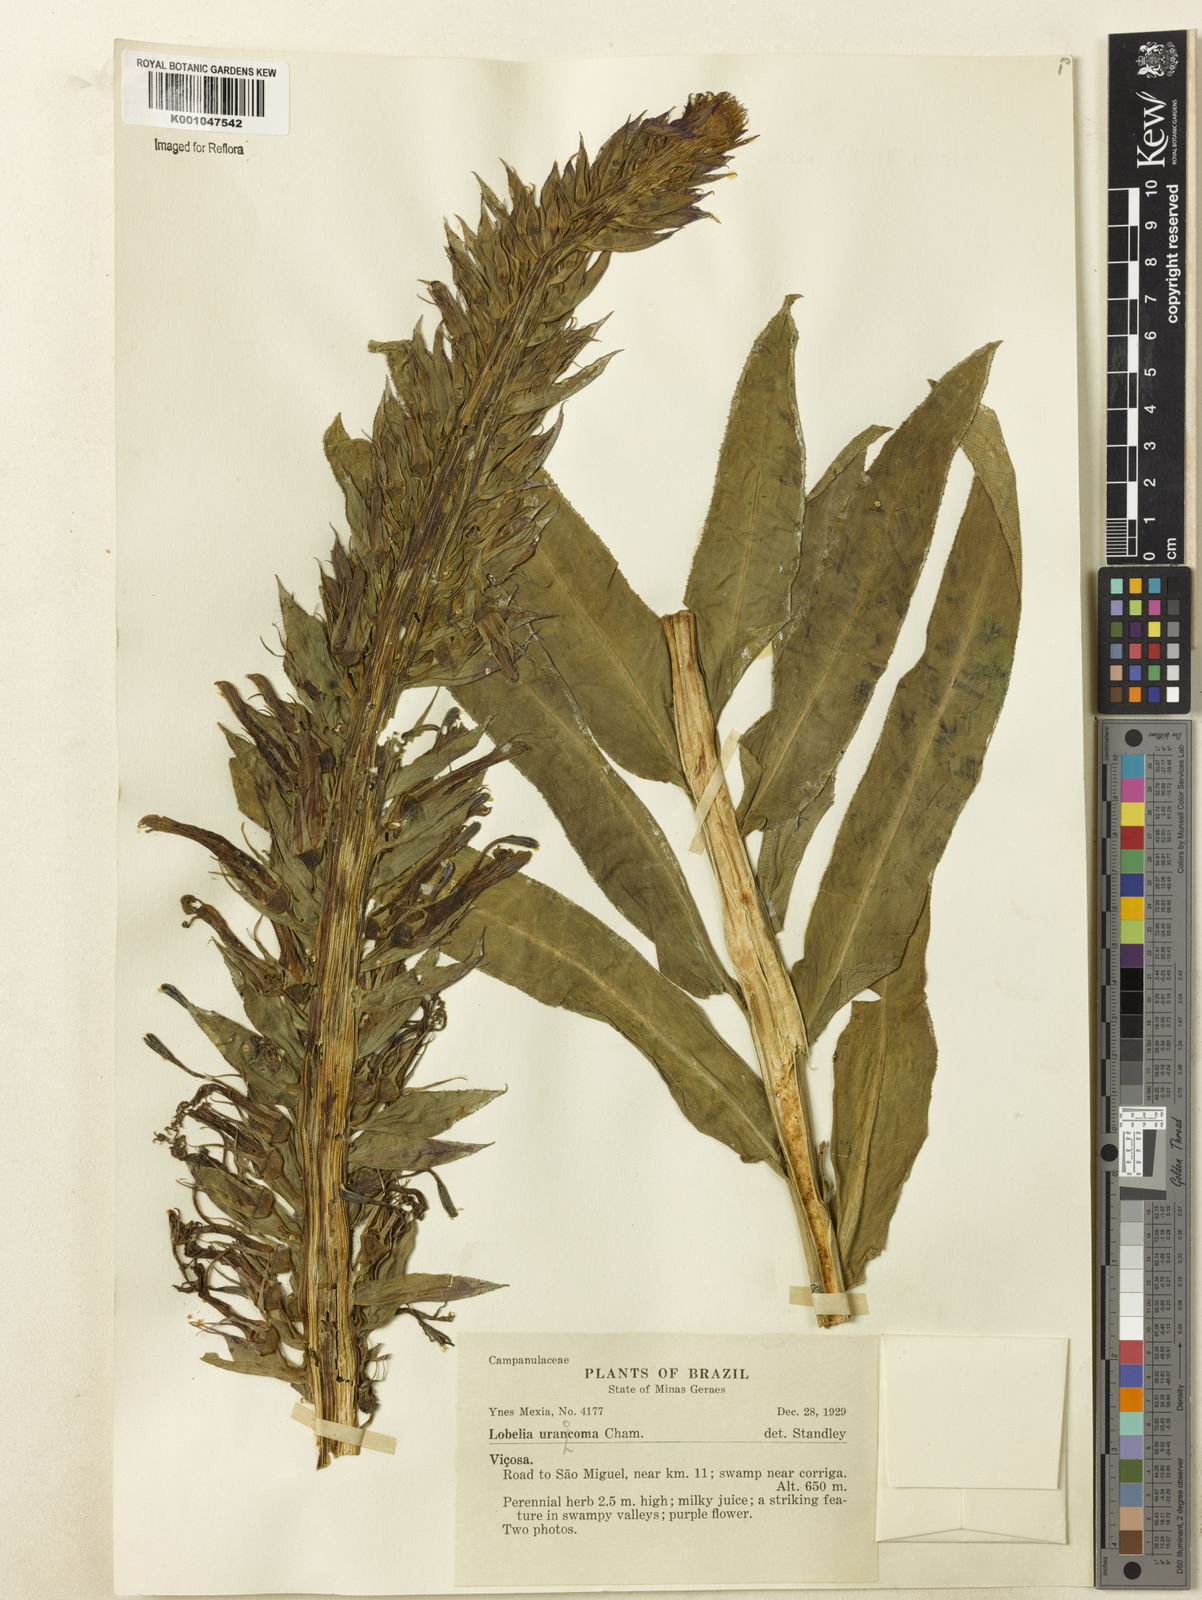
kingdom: Plantae
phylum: Tracheophyta
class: Magnoliopsida
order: Asterales
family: Campanulaceae
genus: Lobelia
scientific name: Lobelia fistulosa
